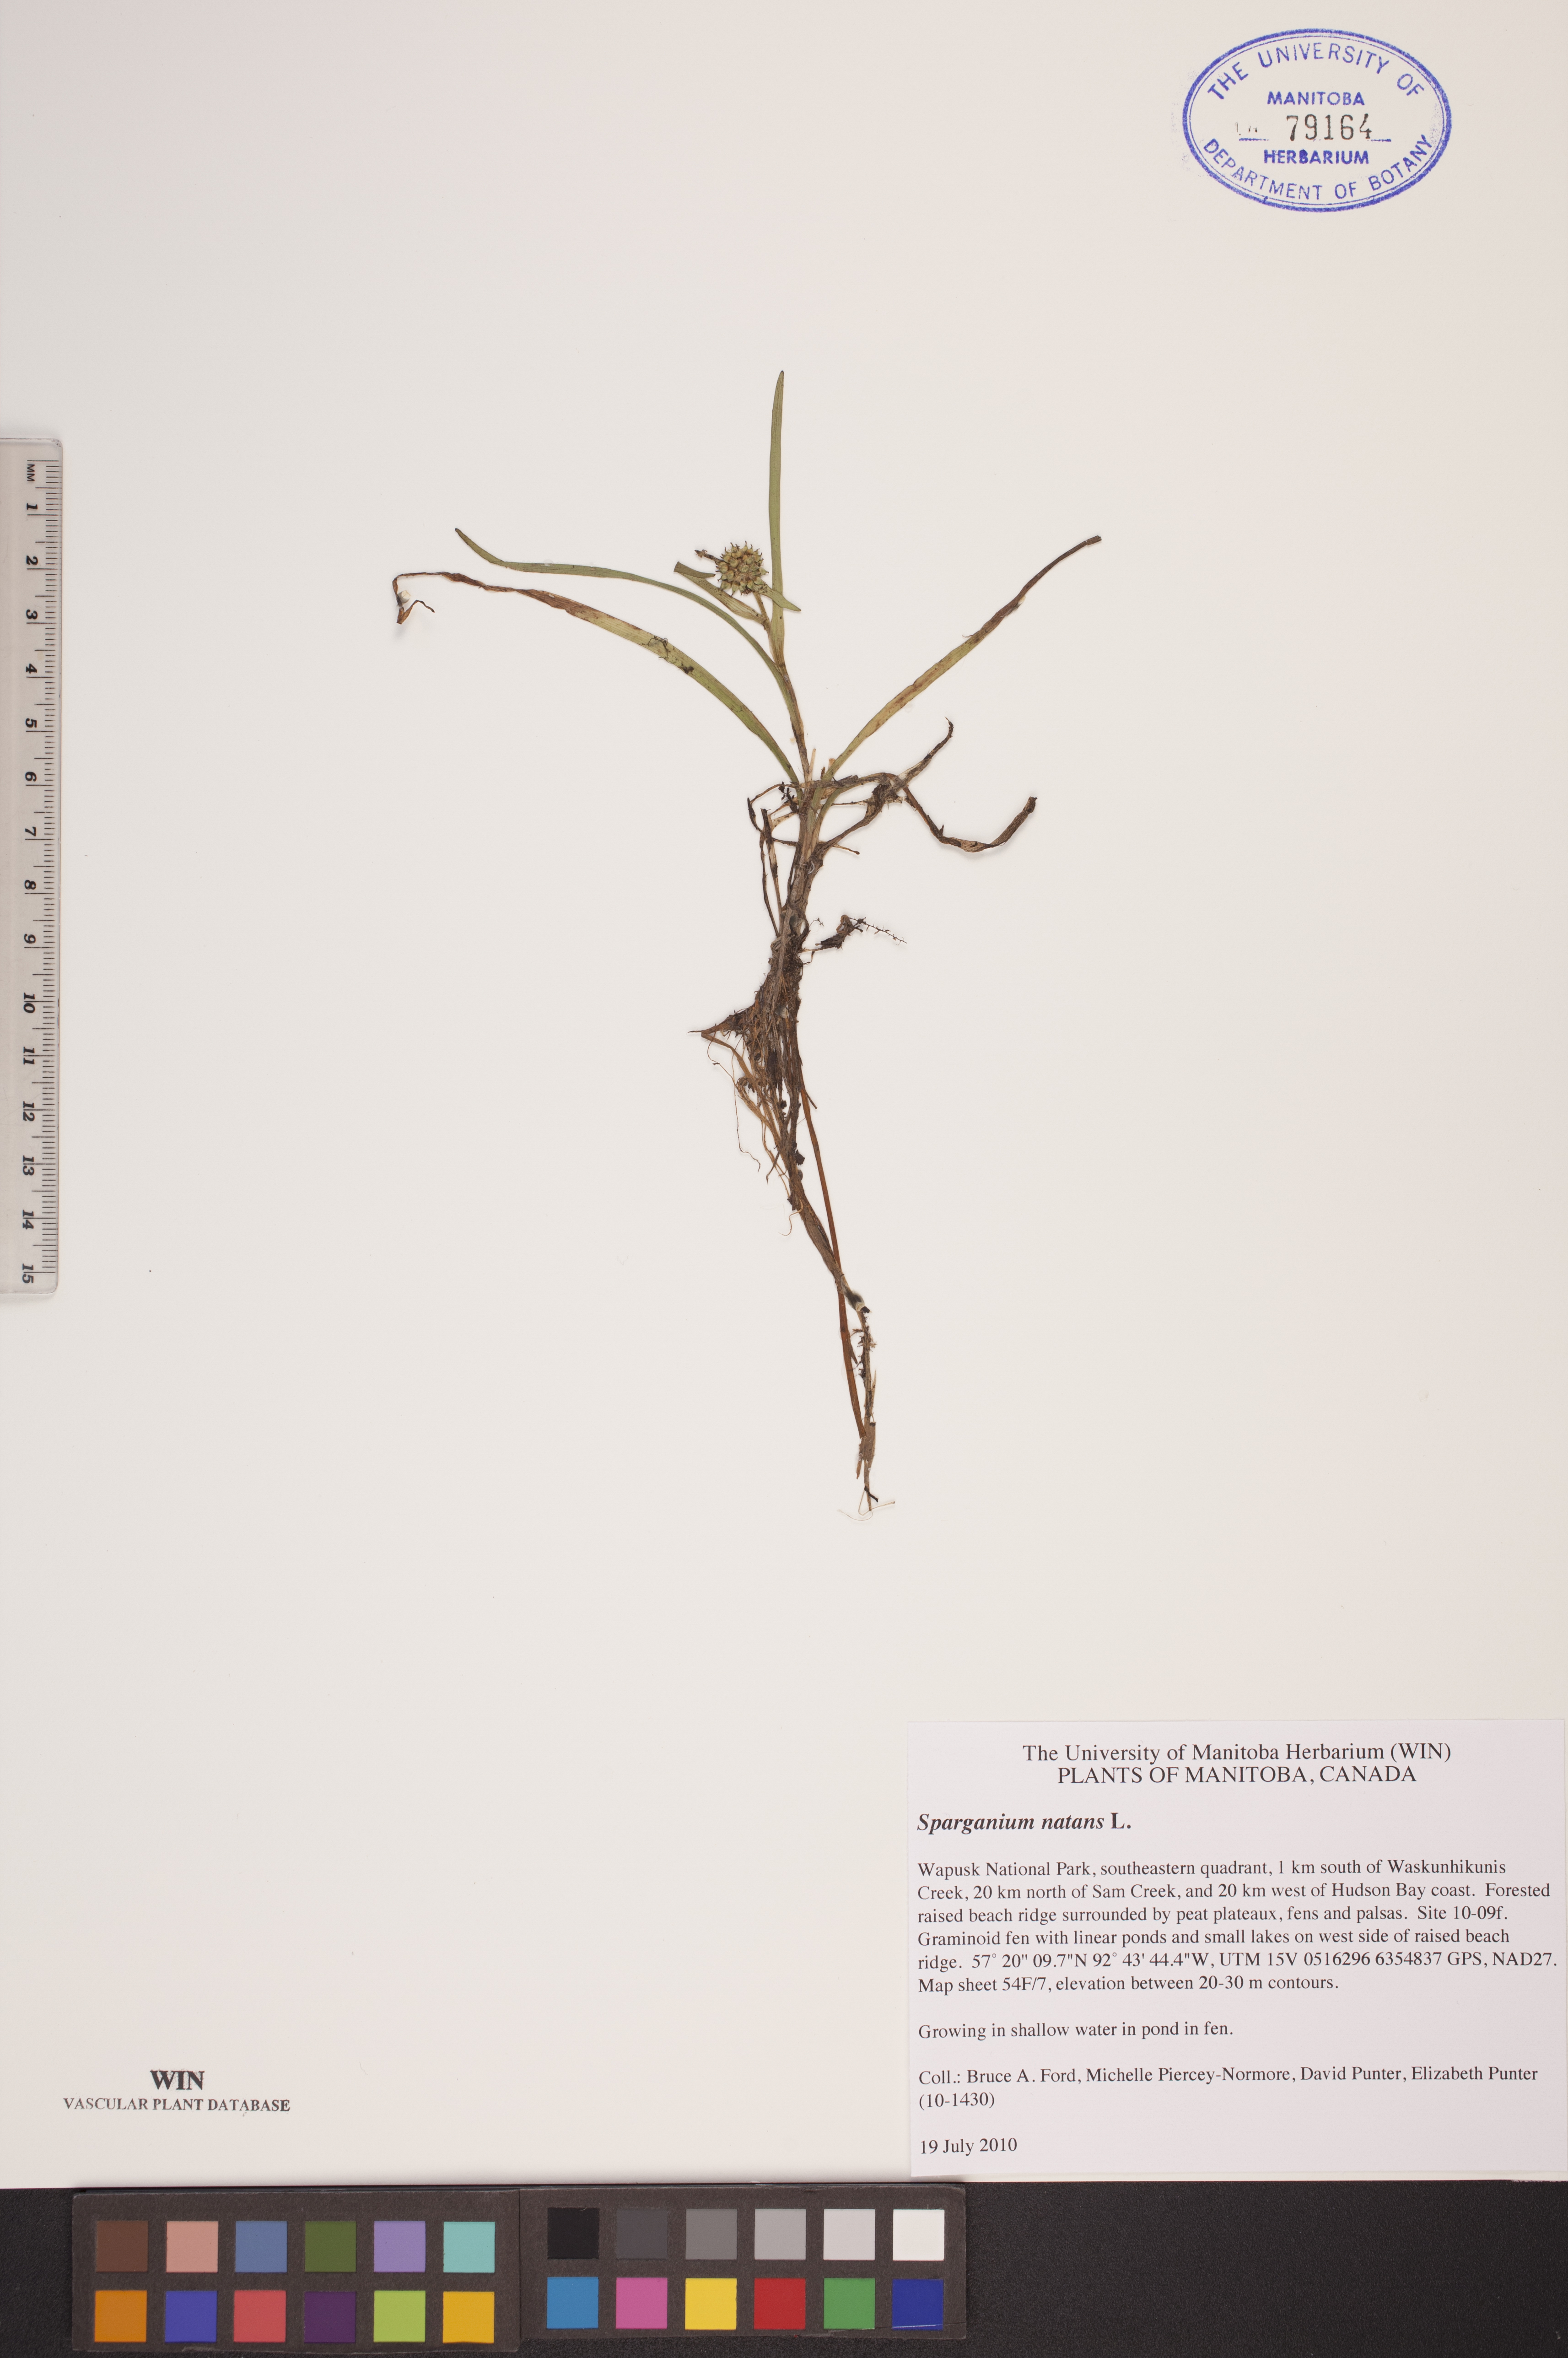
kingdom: Plantae
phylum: Tracheophyta
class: Liliopsida
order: Poales
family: Typhaceae
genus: Sparganium
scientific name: Sparganium natans
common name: Least bur-reed
